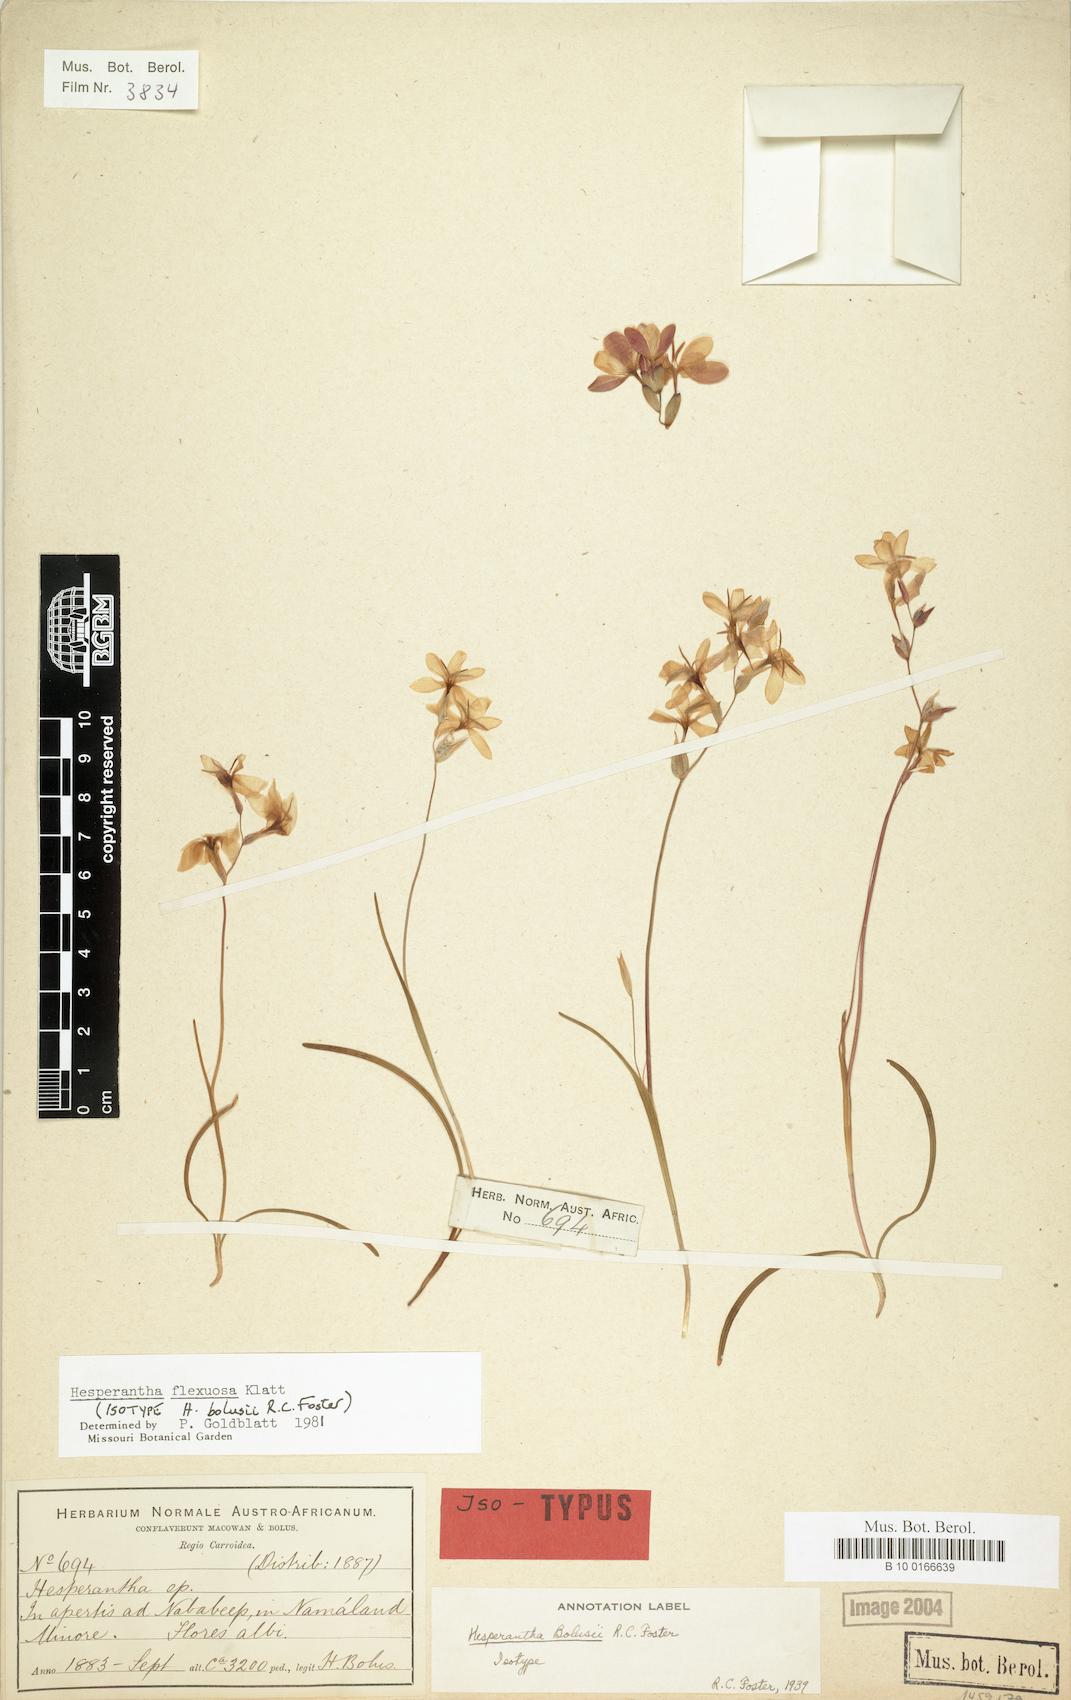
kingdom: Plantae
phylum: Tracheophyta
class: Liliopsida
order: Asparagales
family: Iridaceae
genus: Hesperantha
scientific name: Hesperantha flexuosa
